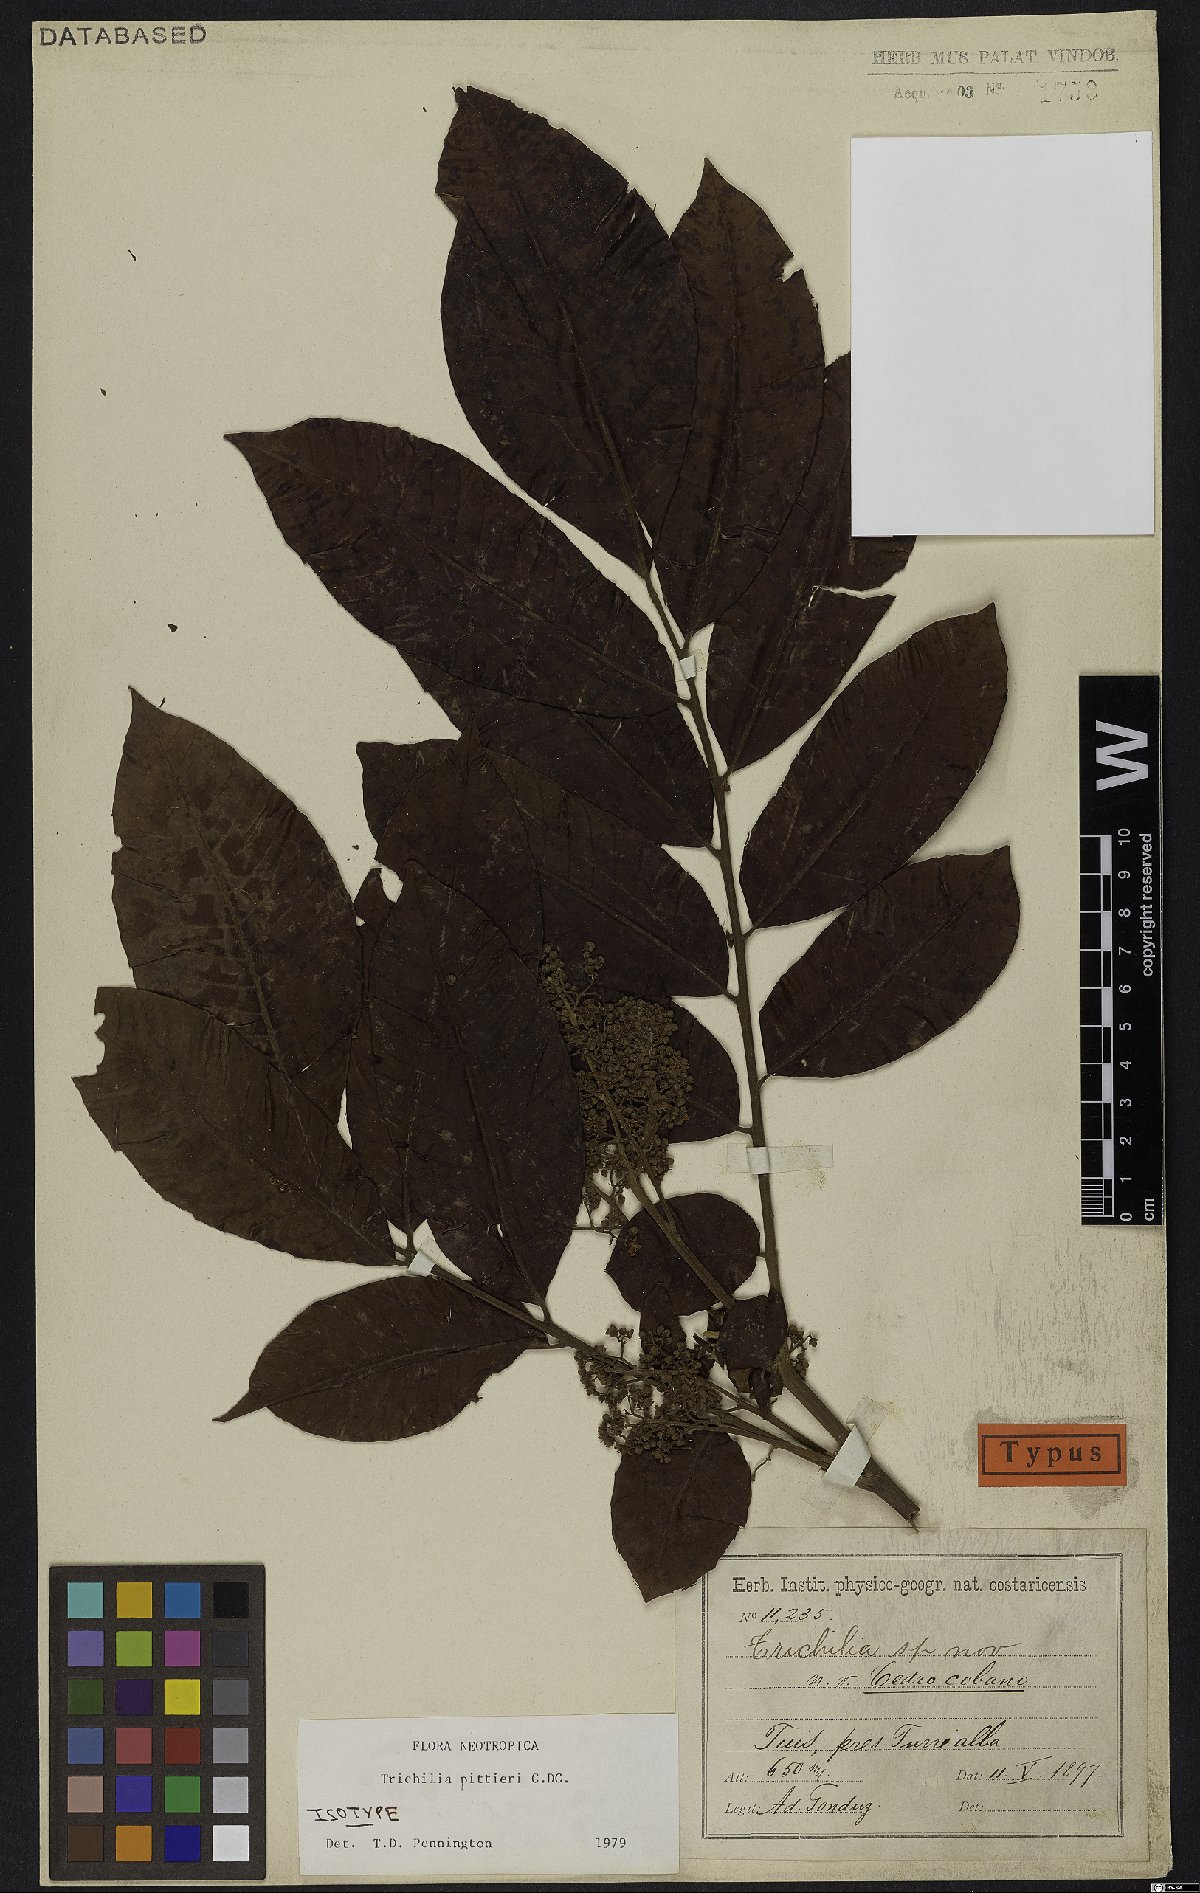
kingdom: Plantae
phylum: Tracheophyta
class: Magnoliopsida
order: Sapindales
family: Meliaceae
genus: Trichilia
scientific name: Trichilia pittieri
